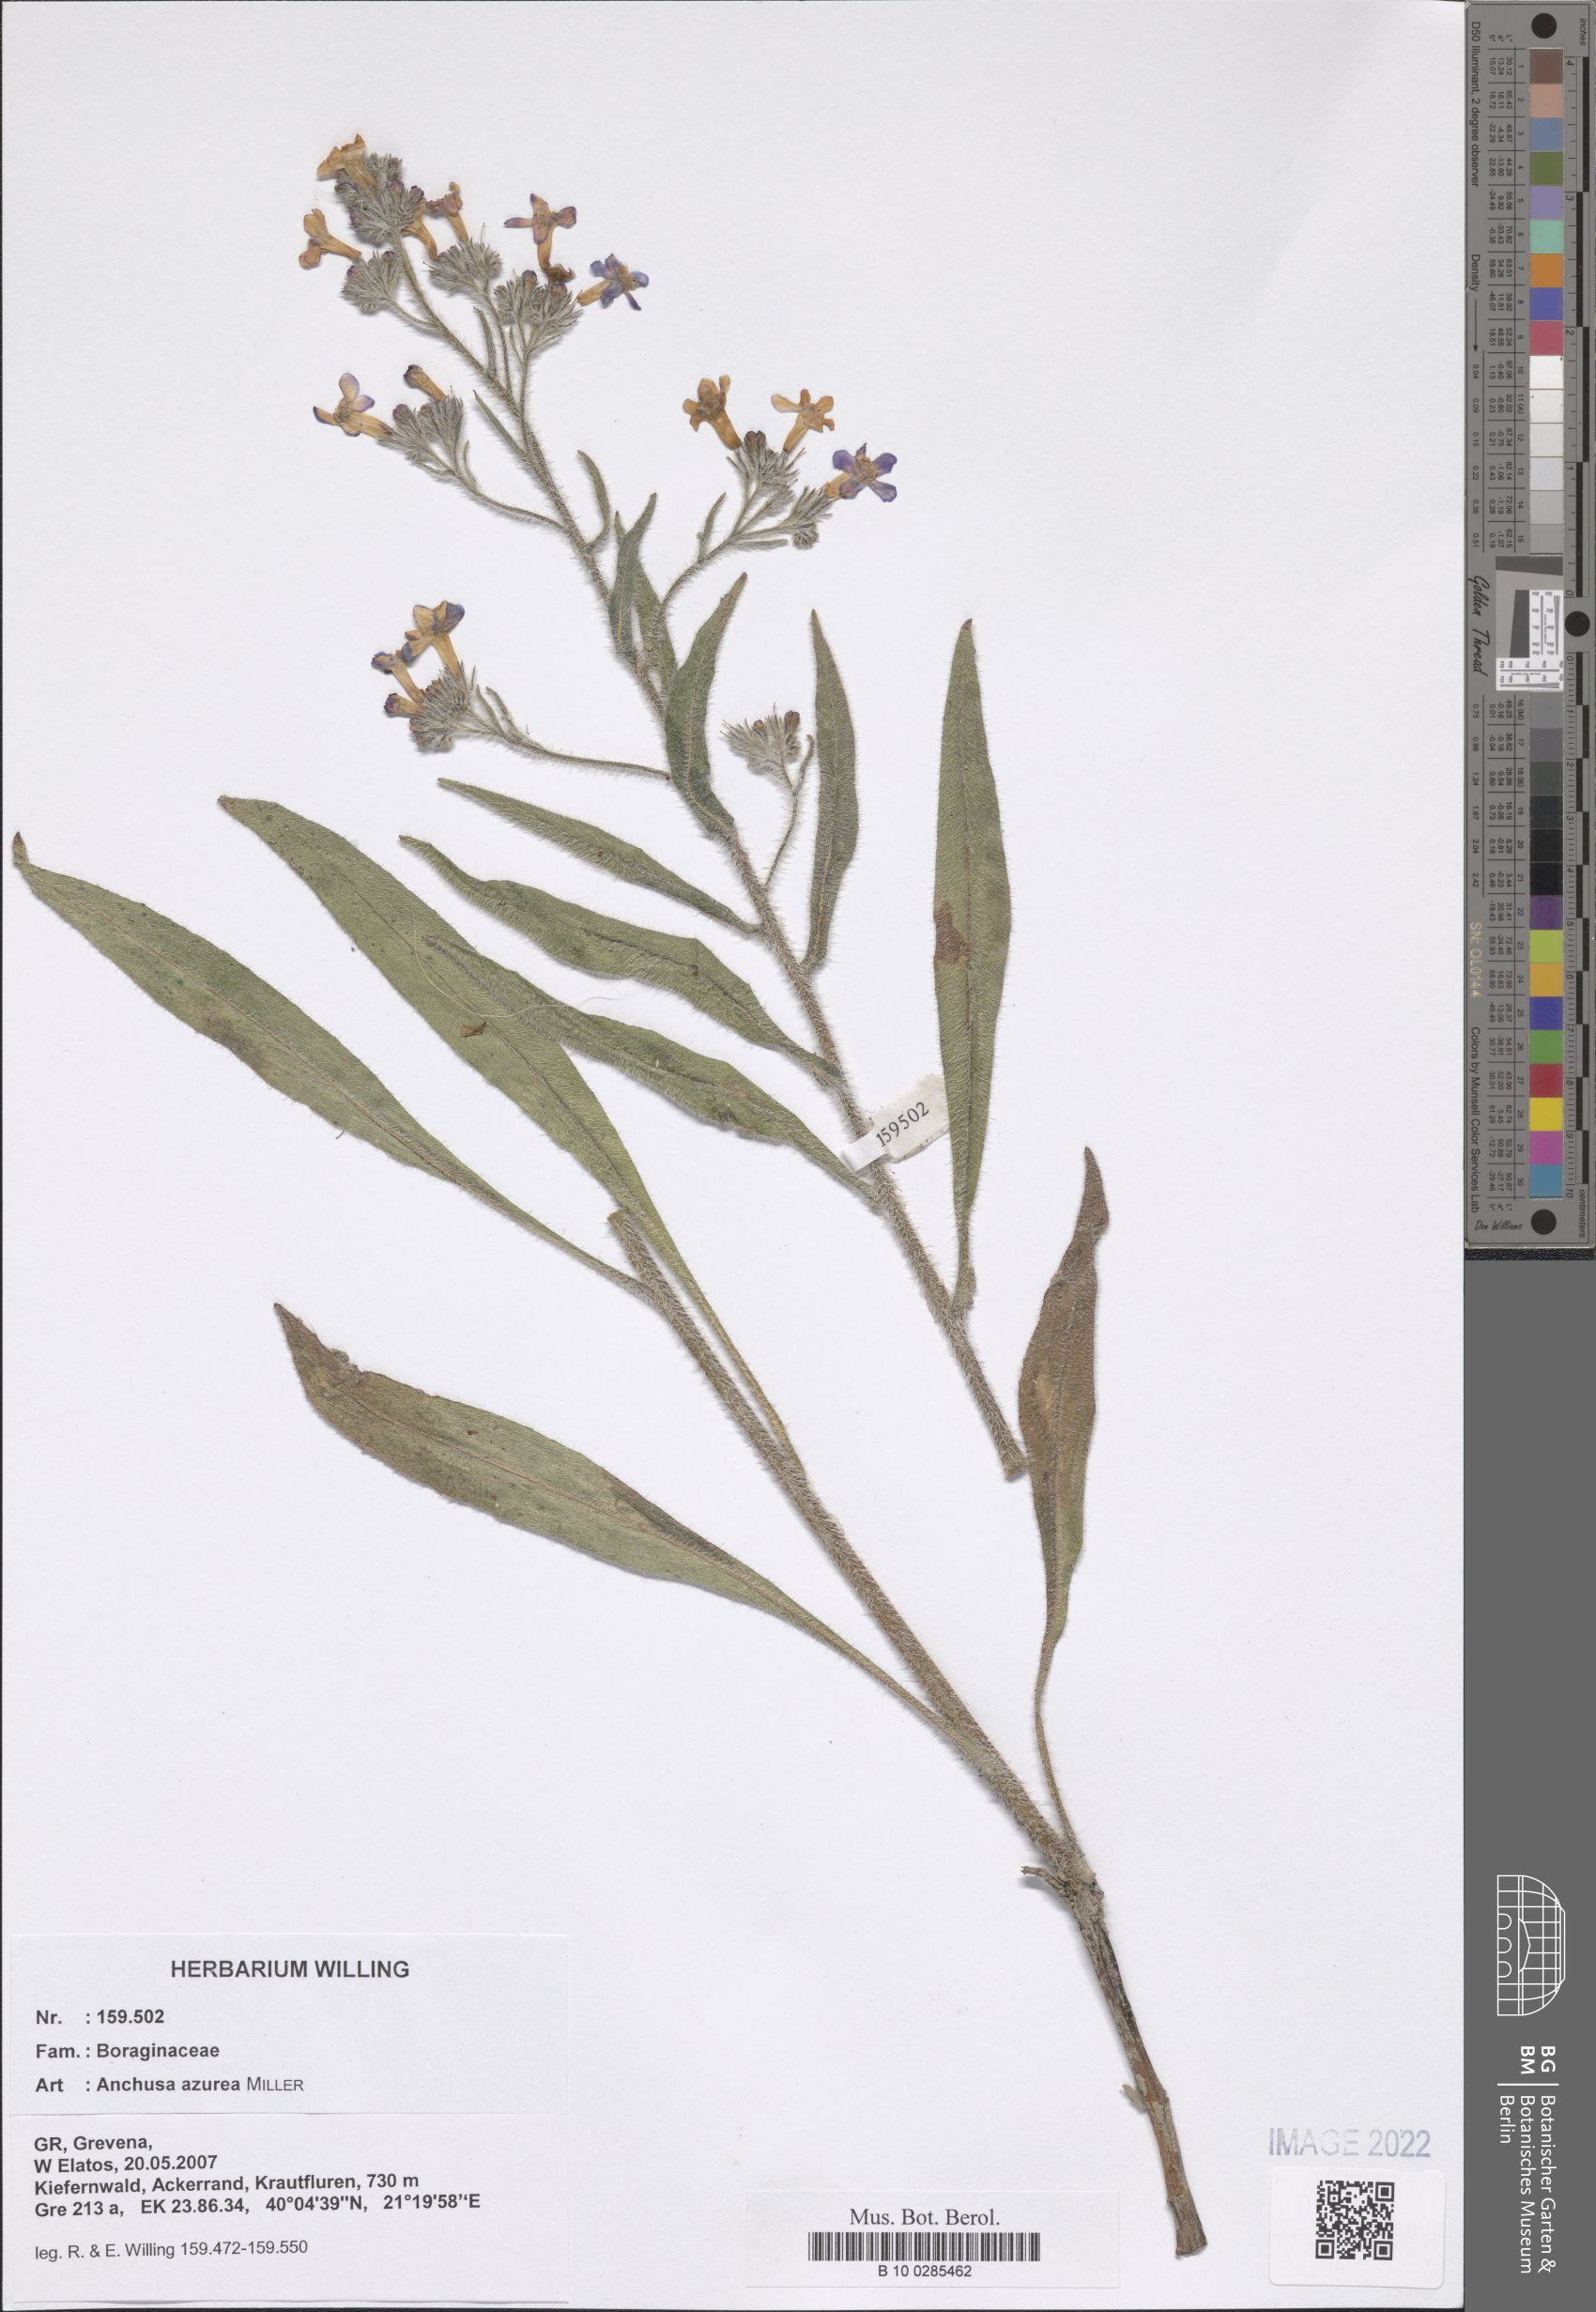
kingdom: Plantae
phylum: Tracheophyta
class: Magnoliopsida
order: Boraginales
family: Boraginaceae
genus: Anchusa
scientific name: Anchusa azurea
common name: Garden anchusa
